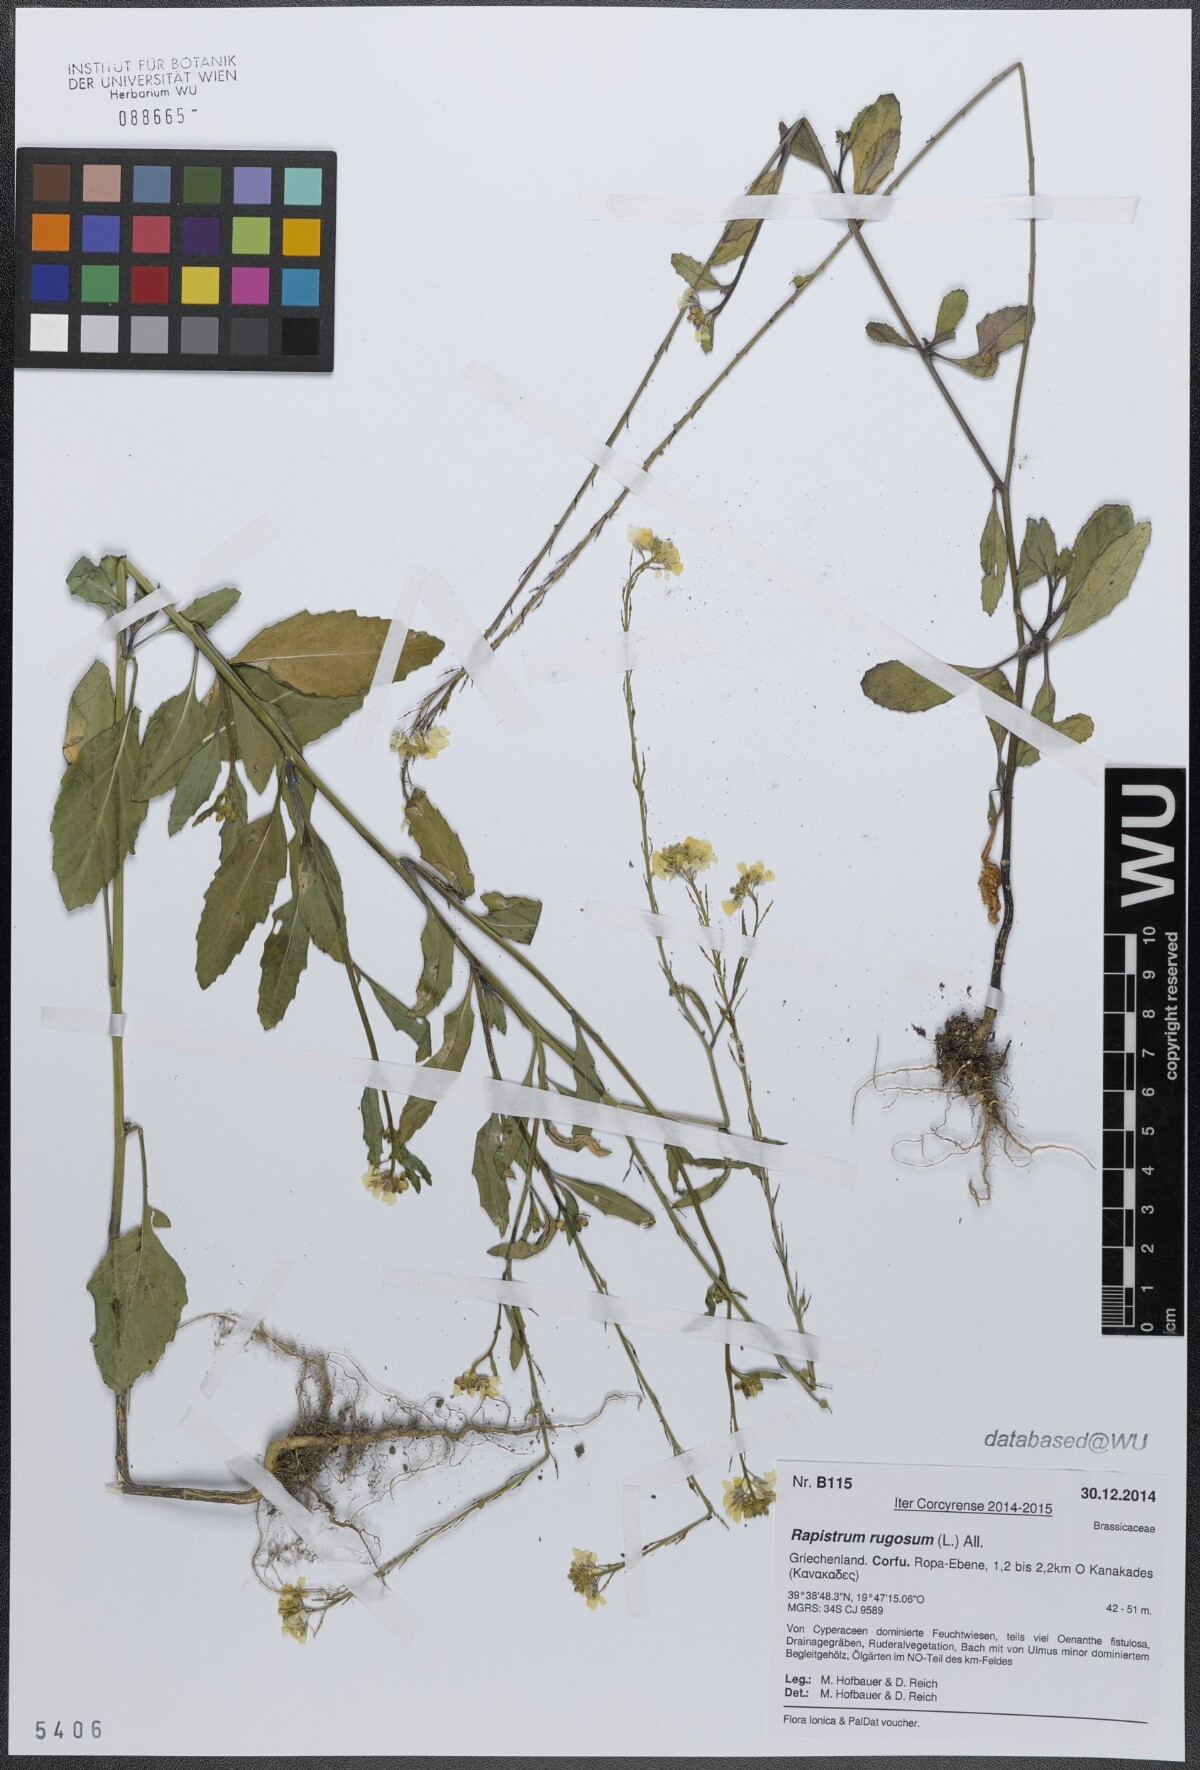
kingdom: Plantae
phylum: Tracheophyta
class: Magnoliopsida
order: Brassicales
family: Brassicaceae
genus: Rapistrum
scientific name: Rapistrum rugosum
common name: Annual bastardcabbage
